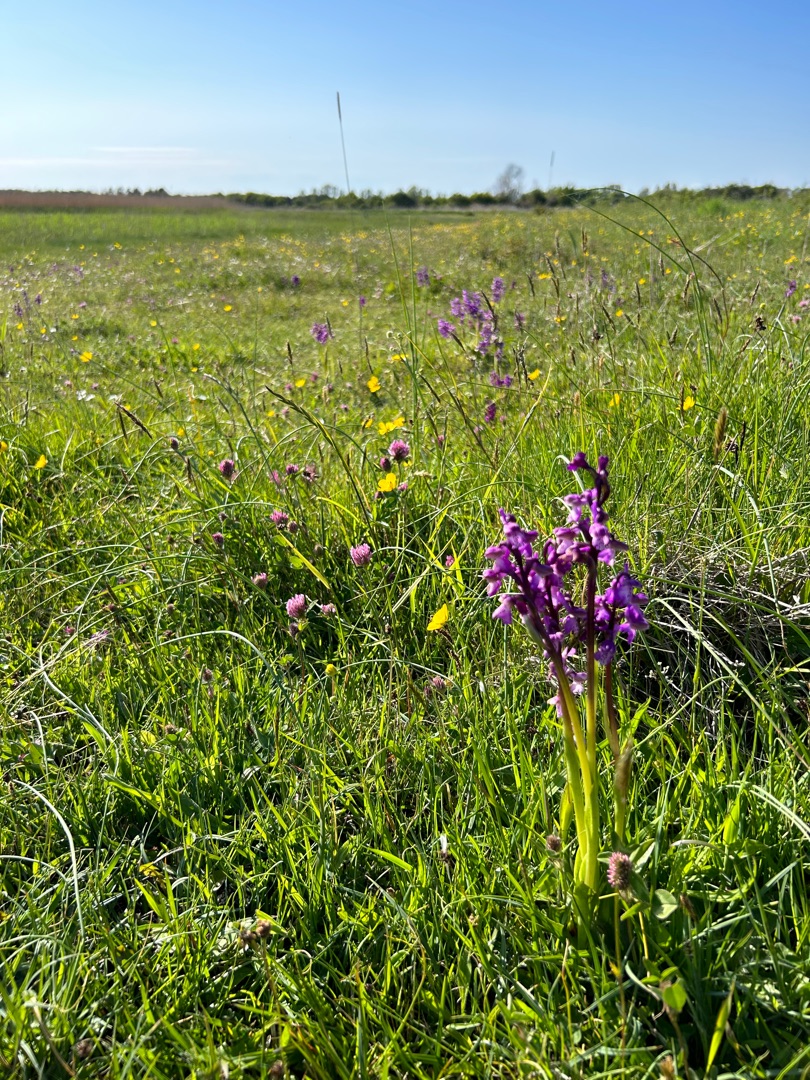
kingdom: Plantae
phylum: Tracheophyta
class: Liliopsida
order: Asparagales
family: Orchidaceae
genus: Anacamptis
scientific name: Anacamptis morio
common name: Salepgøgeurt
